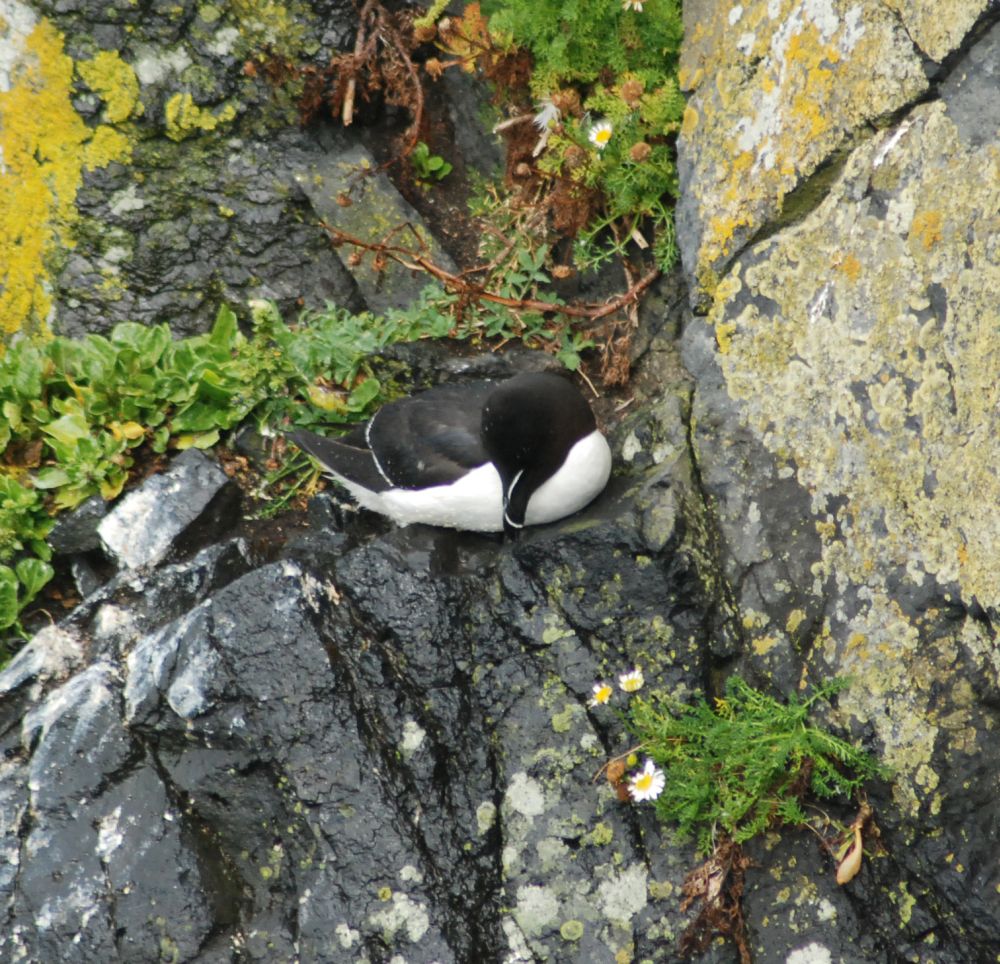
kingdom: Animalia
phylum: Chordata
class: Aves
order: Charadriiformes
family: Alcidae
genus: Alca
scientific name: Alca torda
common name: Razorbill
